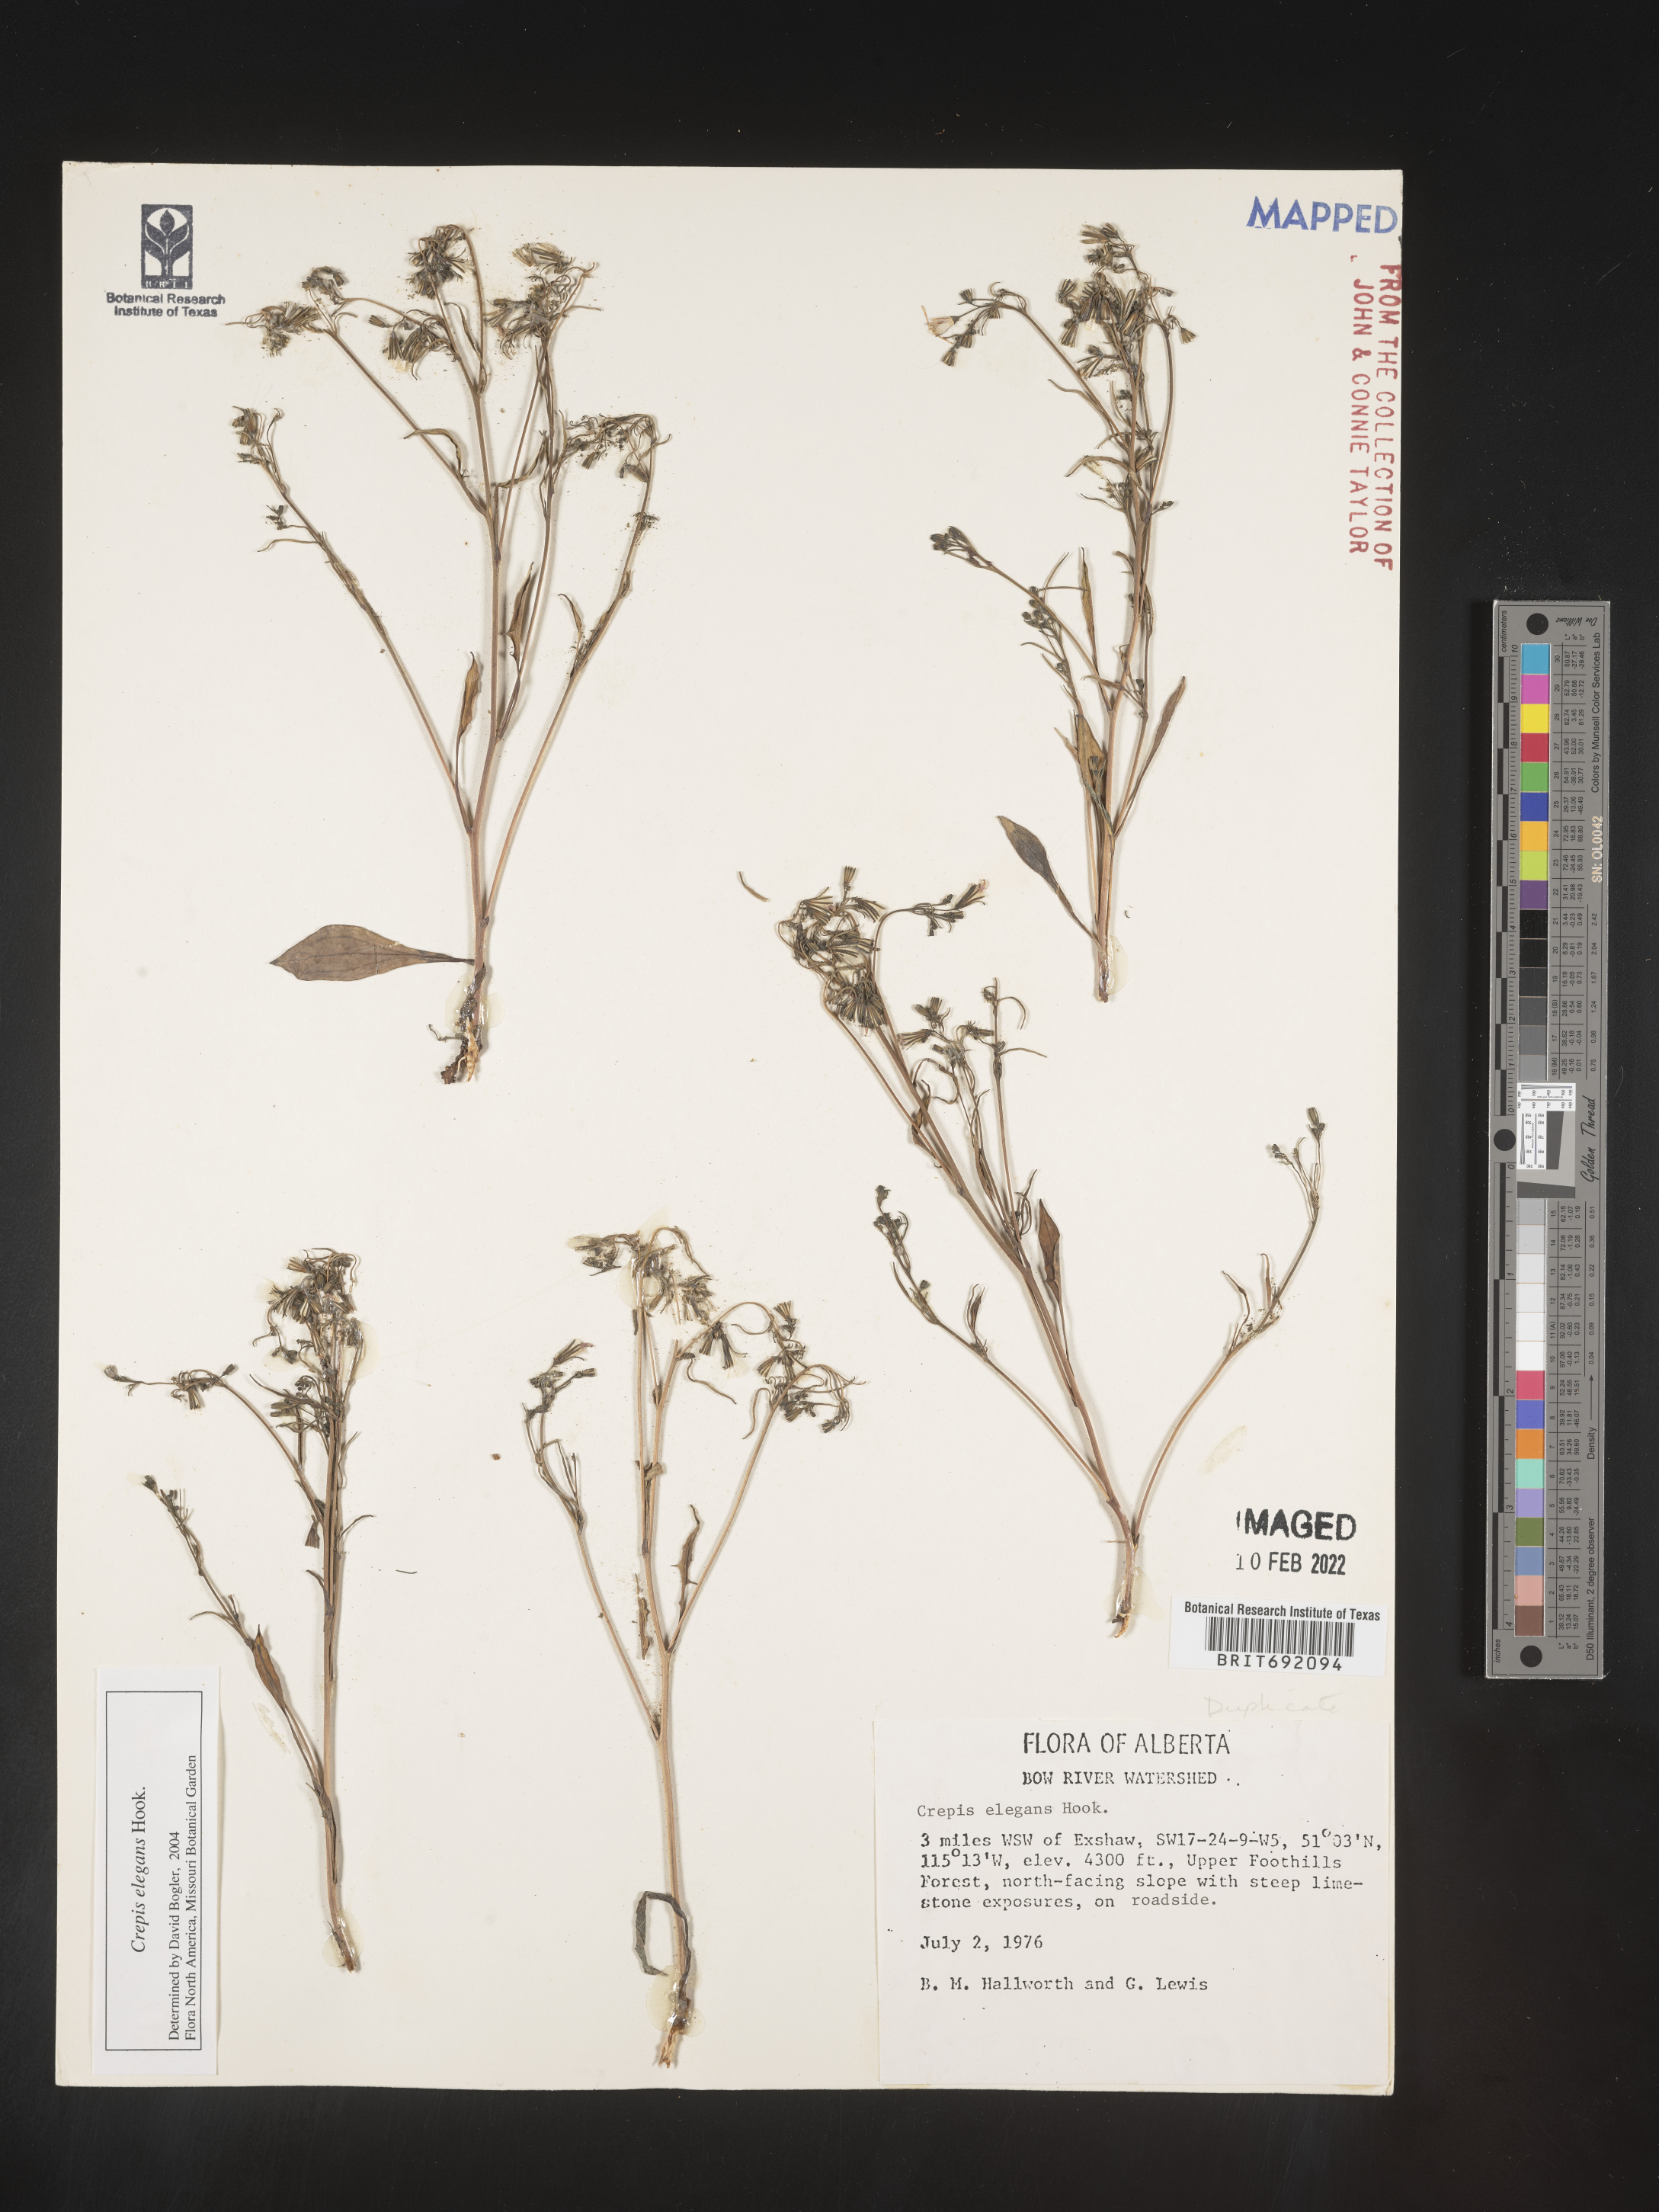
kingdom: Plantae
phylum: Tracheophyta
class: Magnoliopsida
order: Asterales
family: Asteraceae
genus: Crepis
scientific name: Crepis
